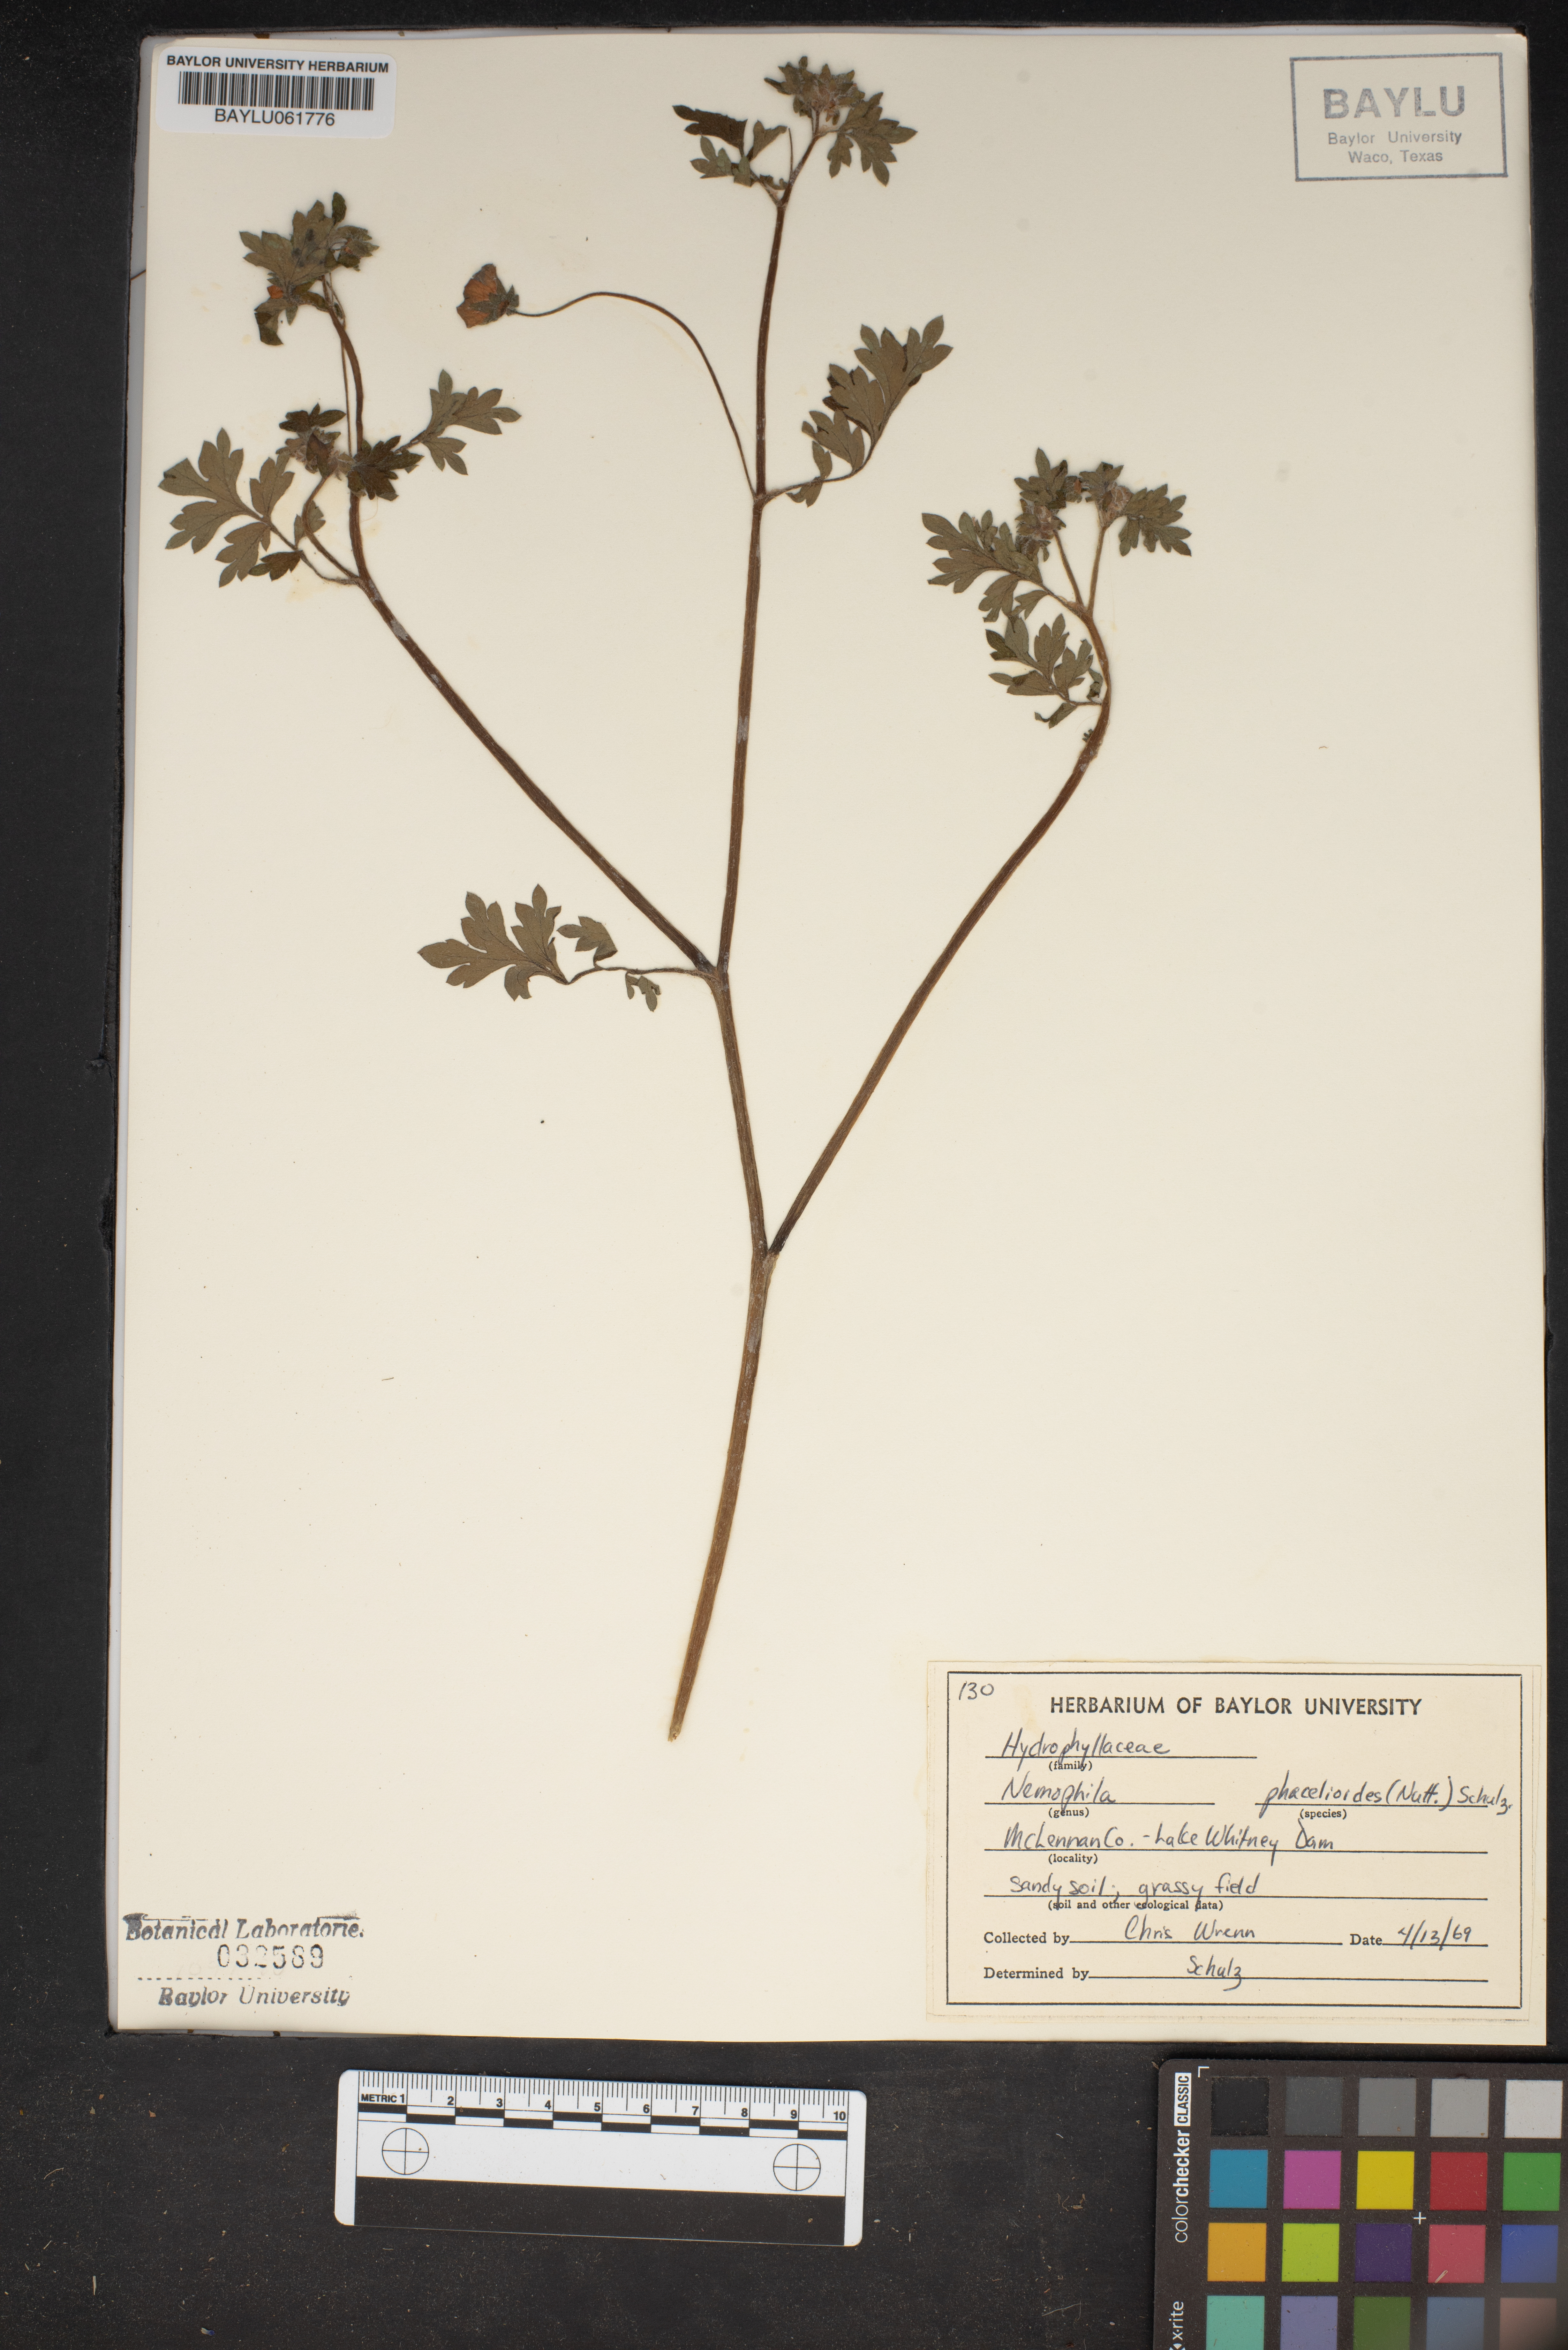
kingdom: Plantae
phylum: Tracheophyta
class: Magnoliopsida
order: Boraginales
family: Hydrophyllaceae
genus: Nemophila
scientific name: Nemophila phacelioides
